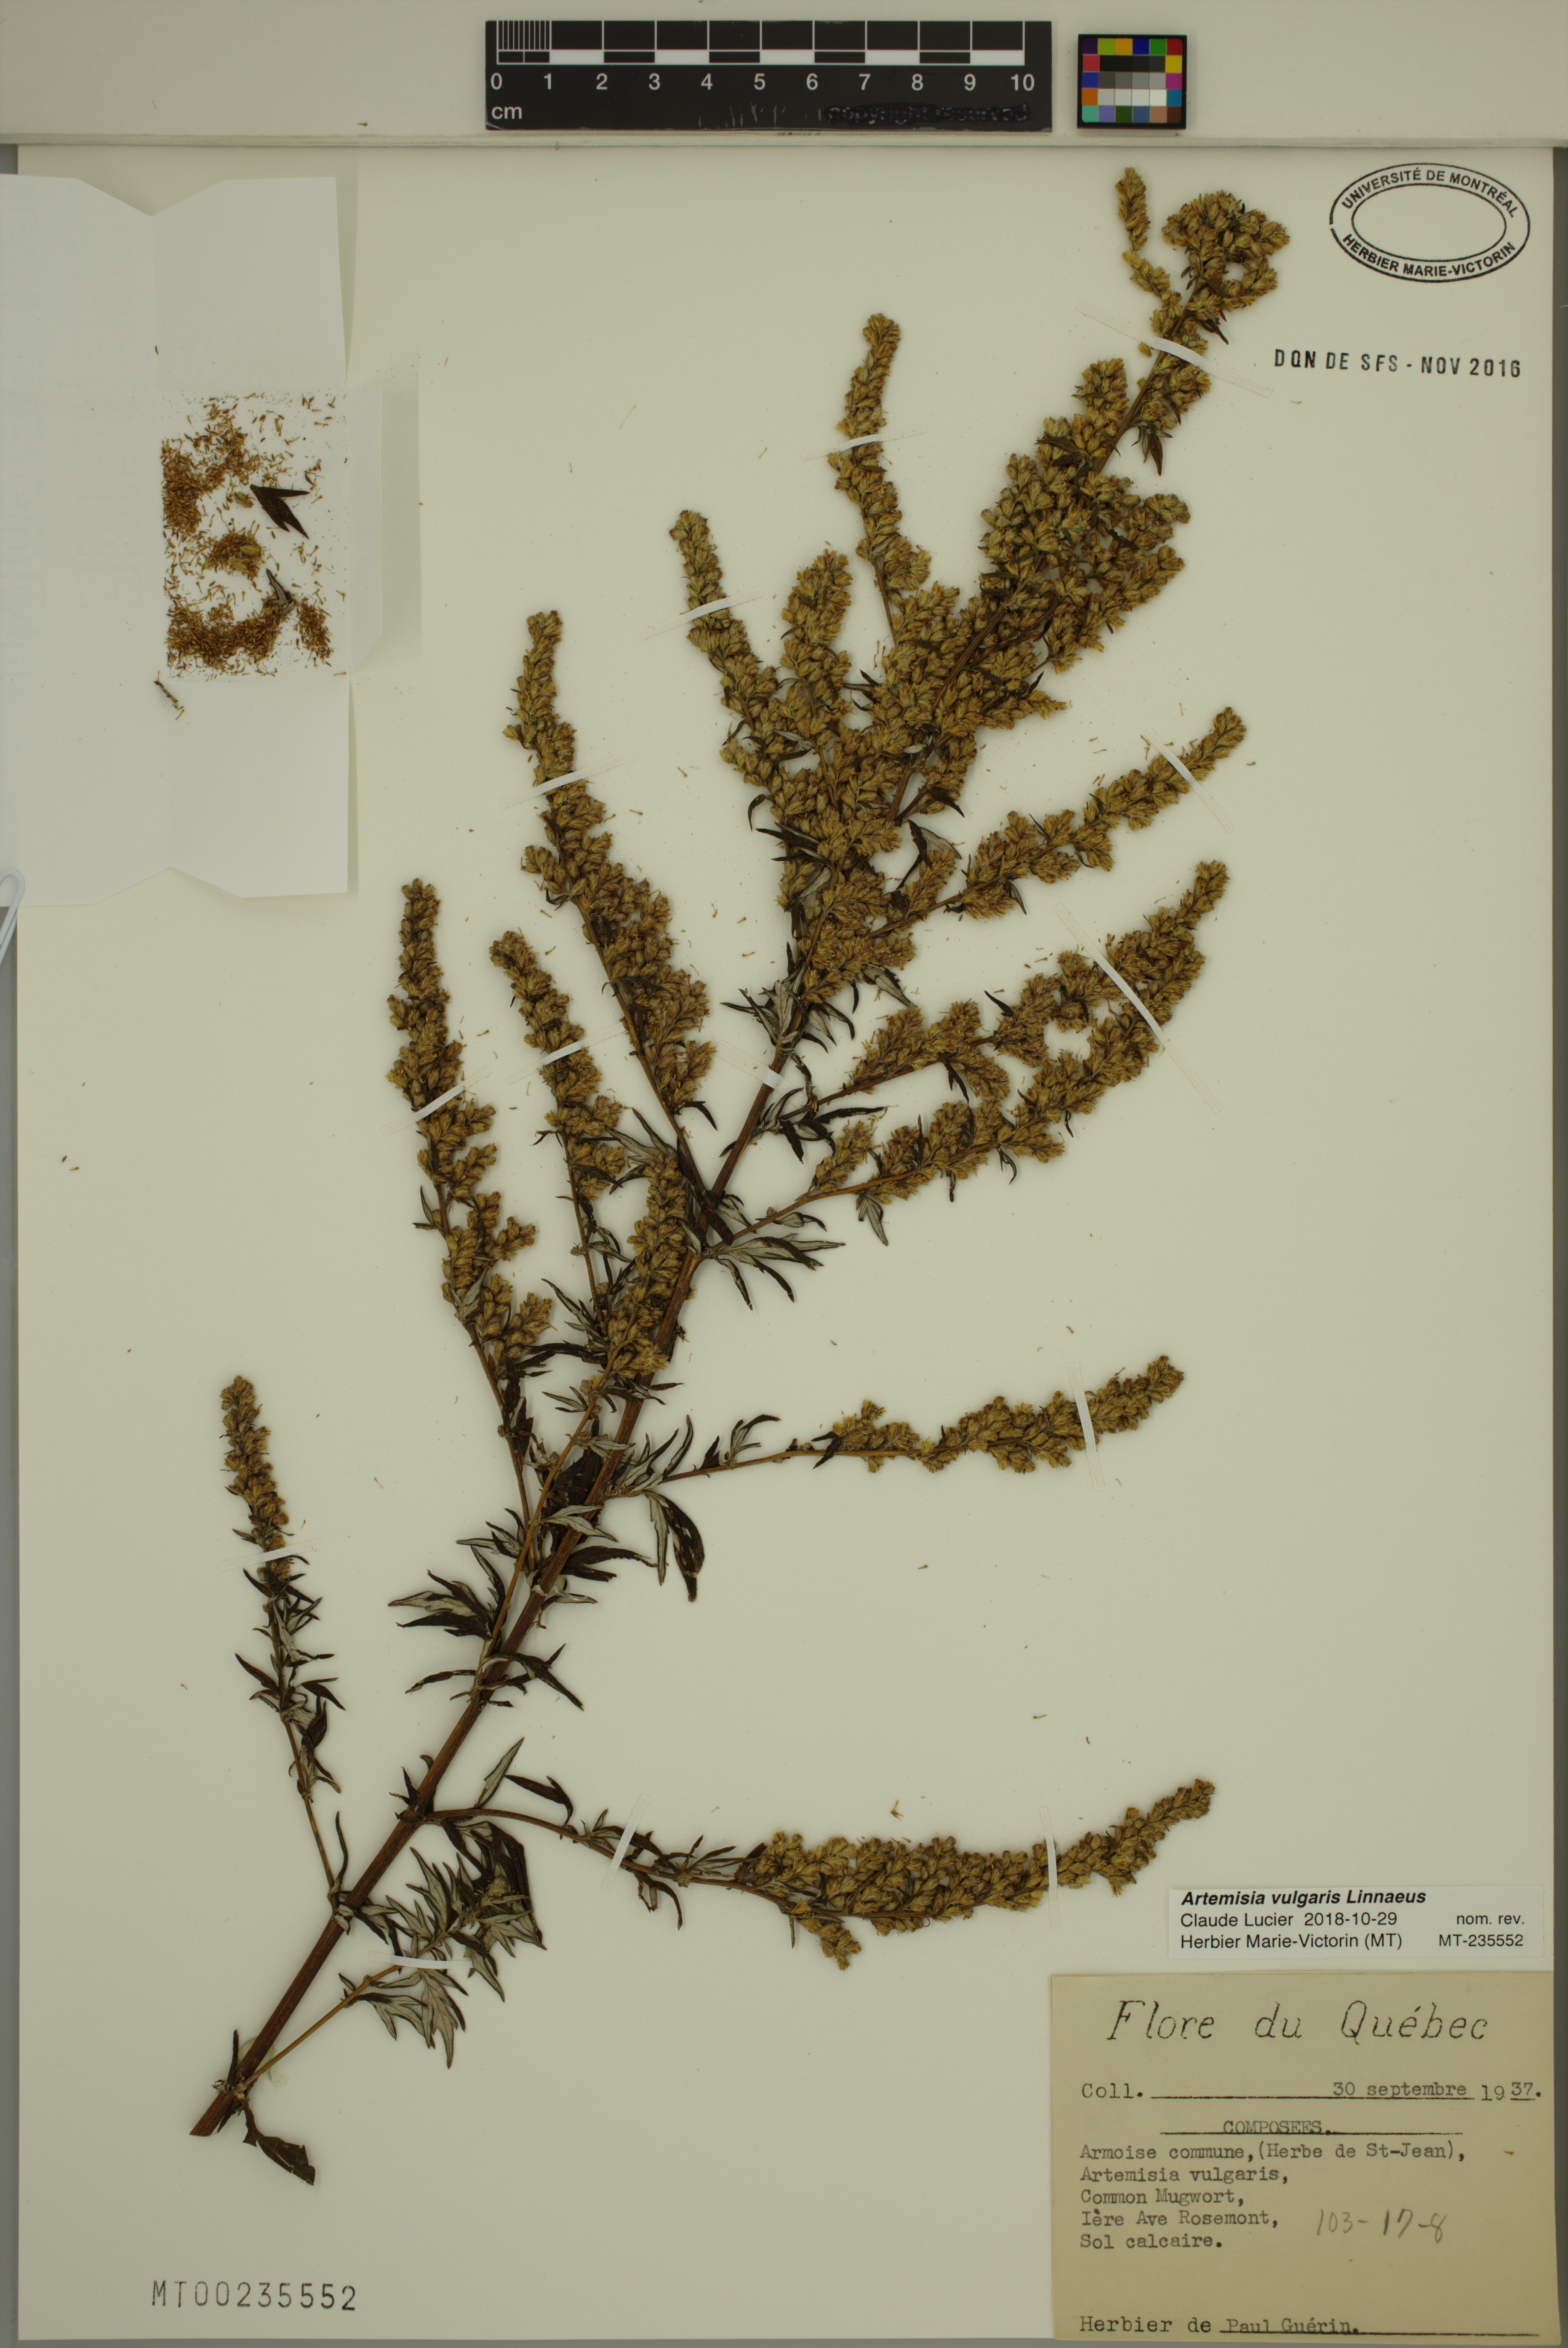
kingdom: Plantae
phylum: Tracheophyta
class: Magnoliopsida
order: Asterales
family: Asteraceae
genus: Artemisia
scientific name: Artemisia vulgaris
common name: Mugwort
